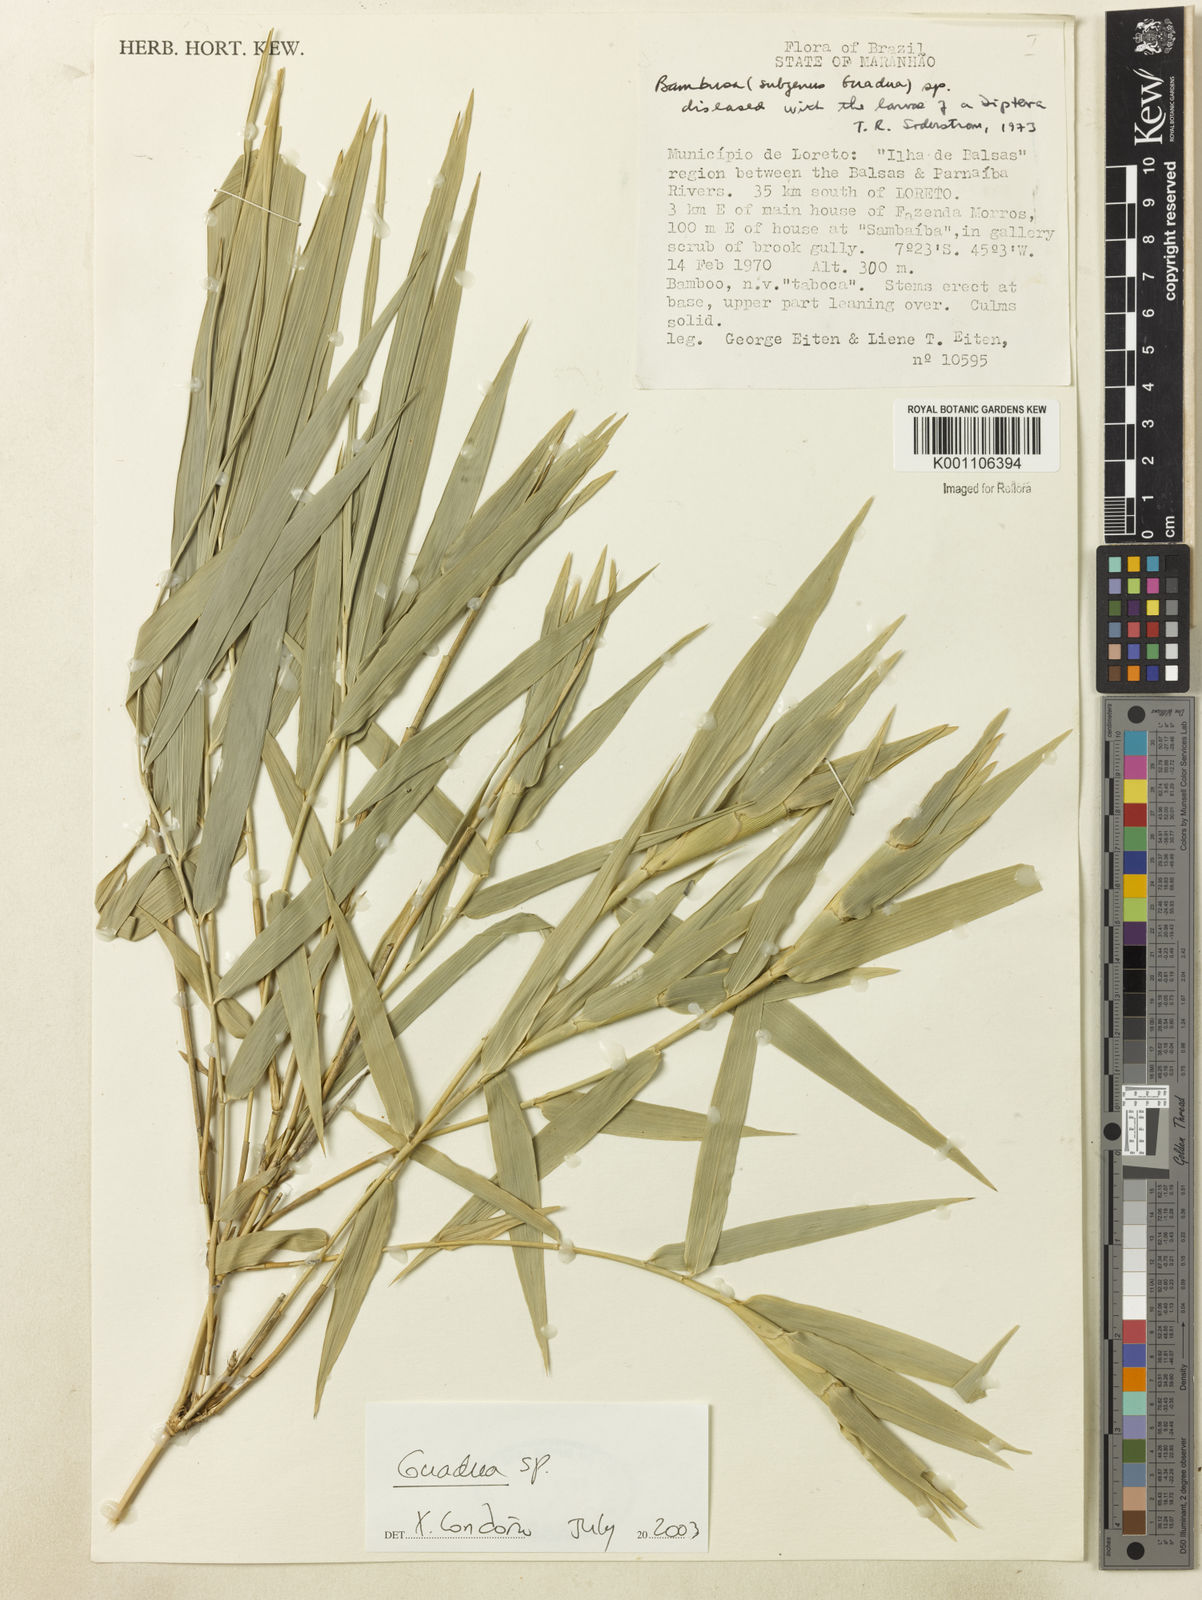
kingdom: Plantae
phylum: Tracheophyta
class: Liliopsida
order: Poales
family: Poaceae
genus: Guadua
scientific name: Guadua paniculata
